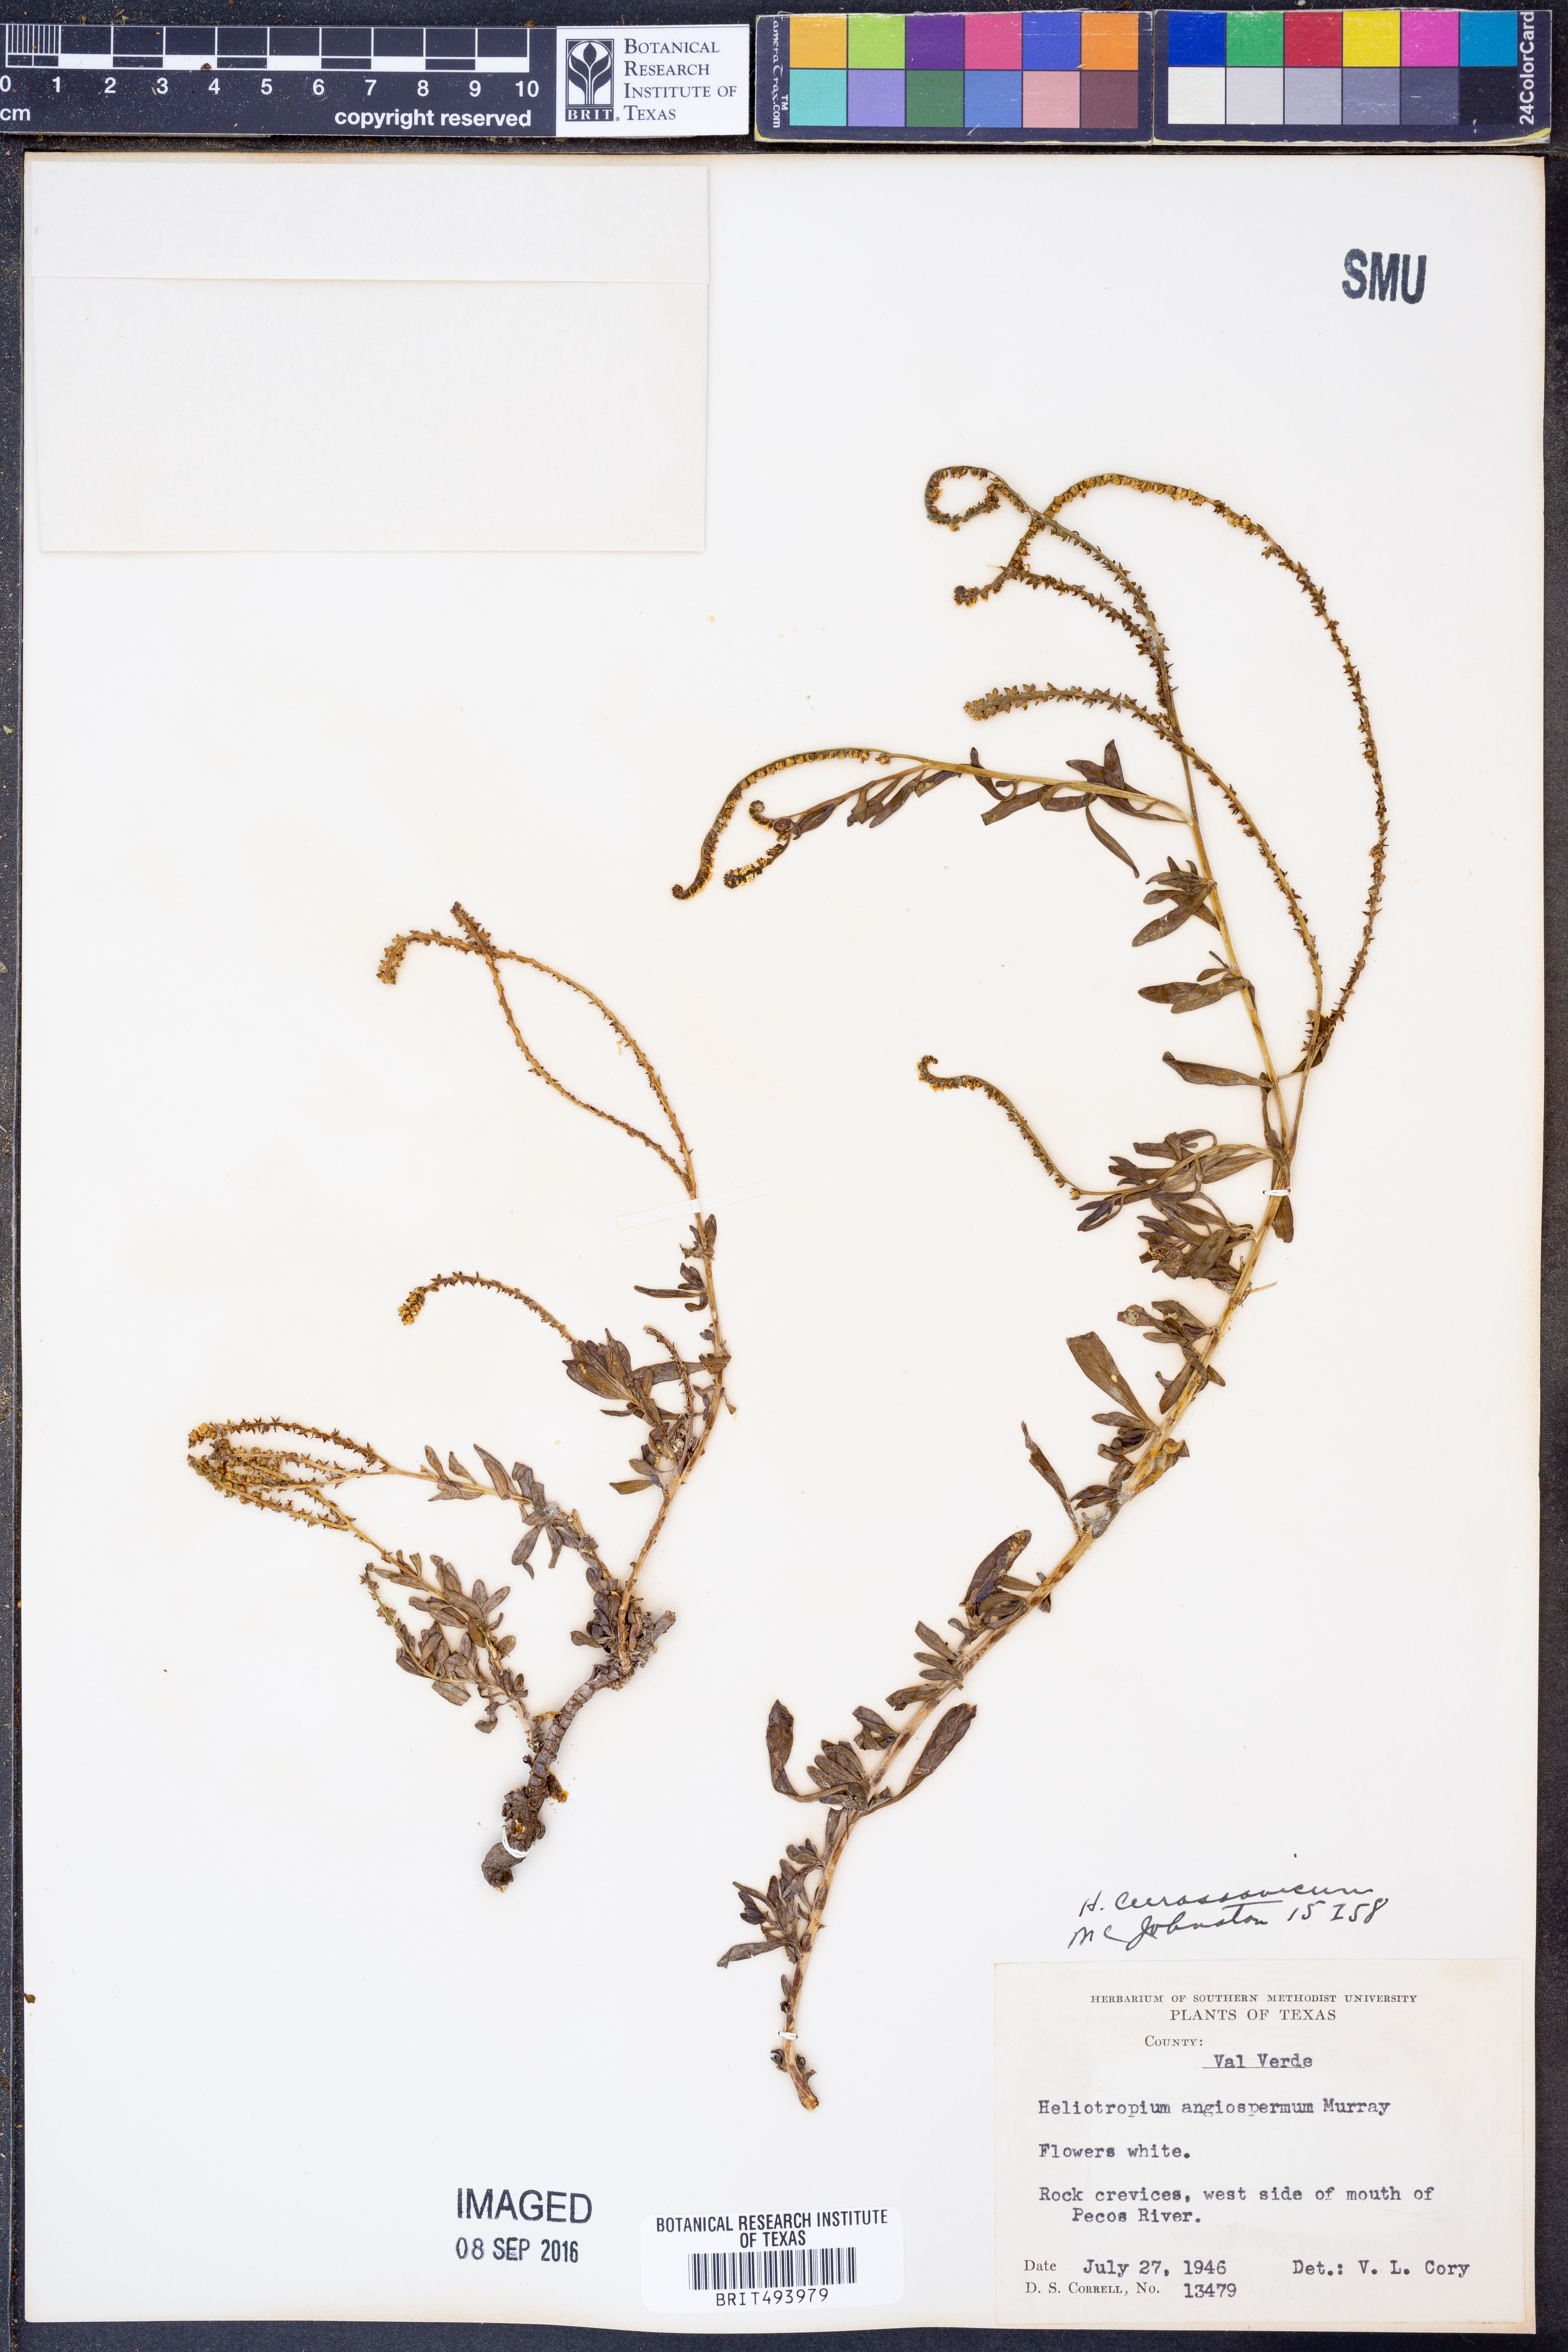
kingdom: Plantae
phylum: Tracheophyta
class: Magnoliopsida
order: Boraginales
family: Heliotropiaceae
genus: Heliotropium
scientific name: Heliotropium curassavicum
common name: Seaside heliotrope
